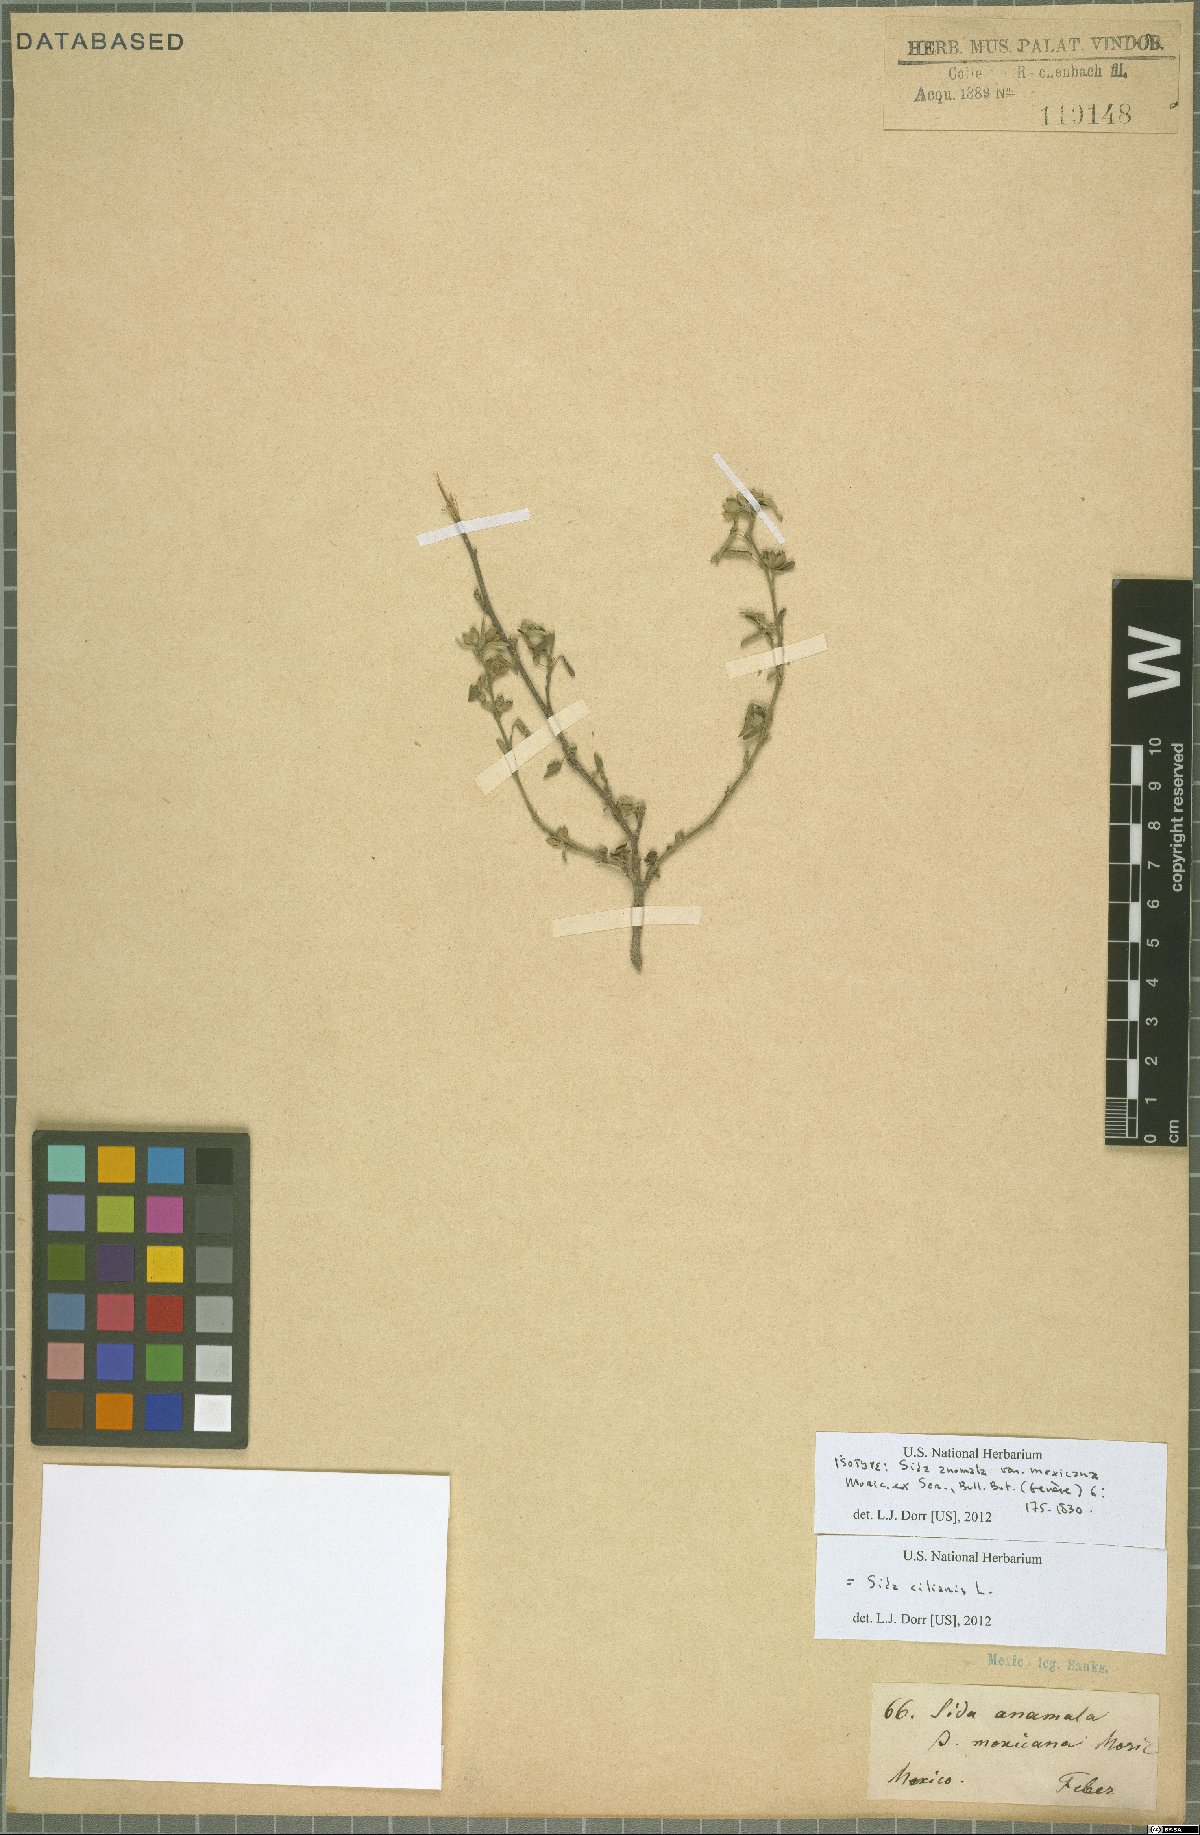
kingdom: Plantae
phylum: Tracheophyta
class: Magnoliopsida
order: Malvales
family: Malvaceae
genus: Sida
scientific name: Sida ciliaris
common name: Bracted fanpetals
